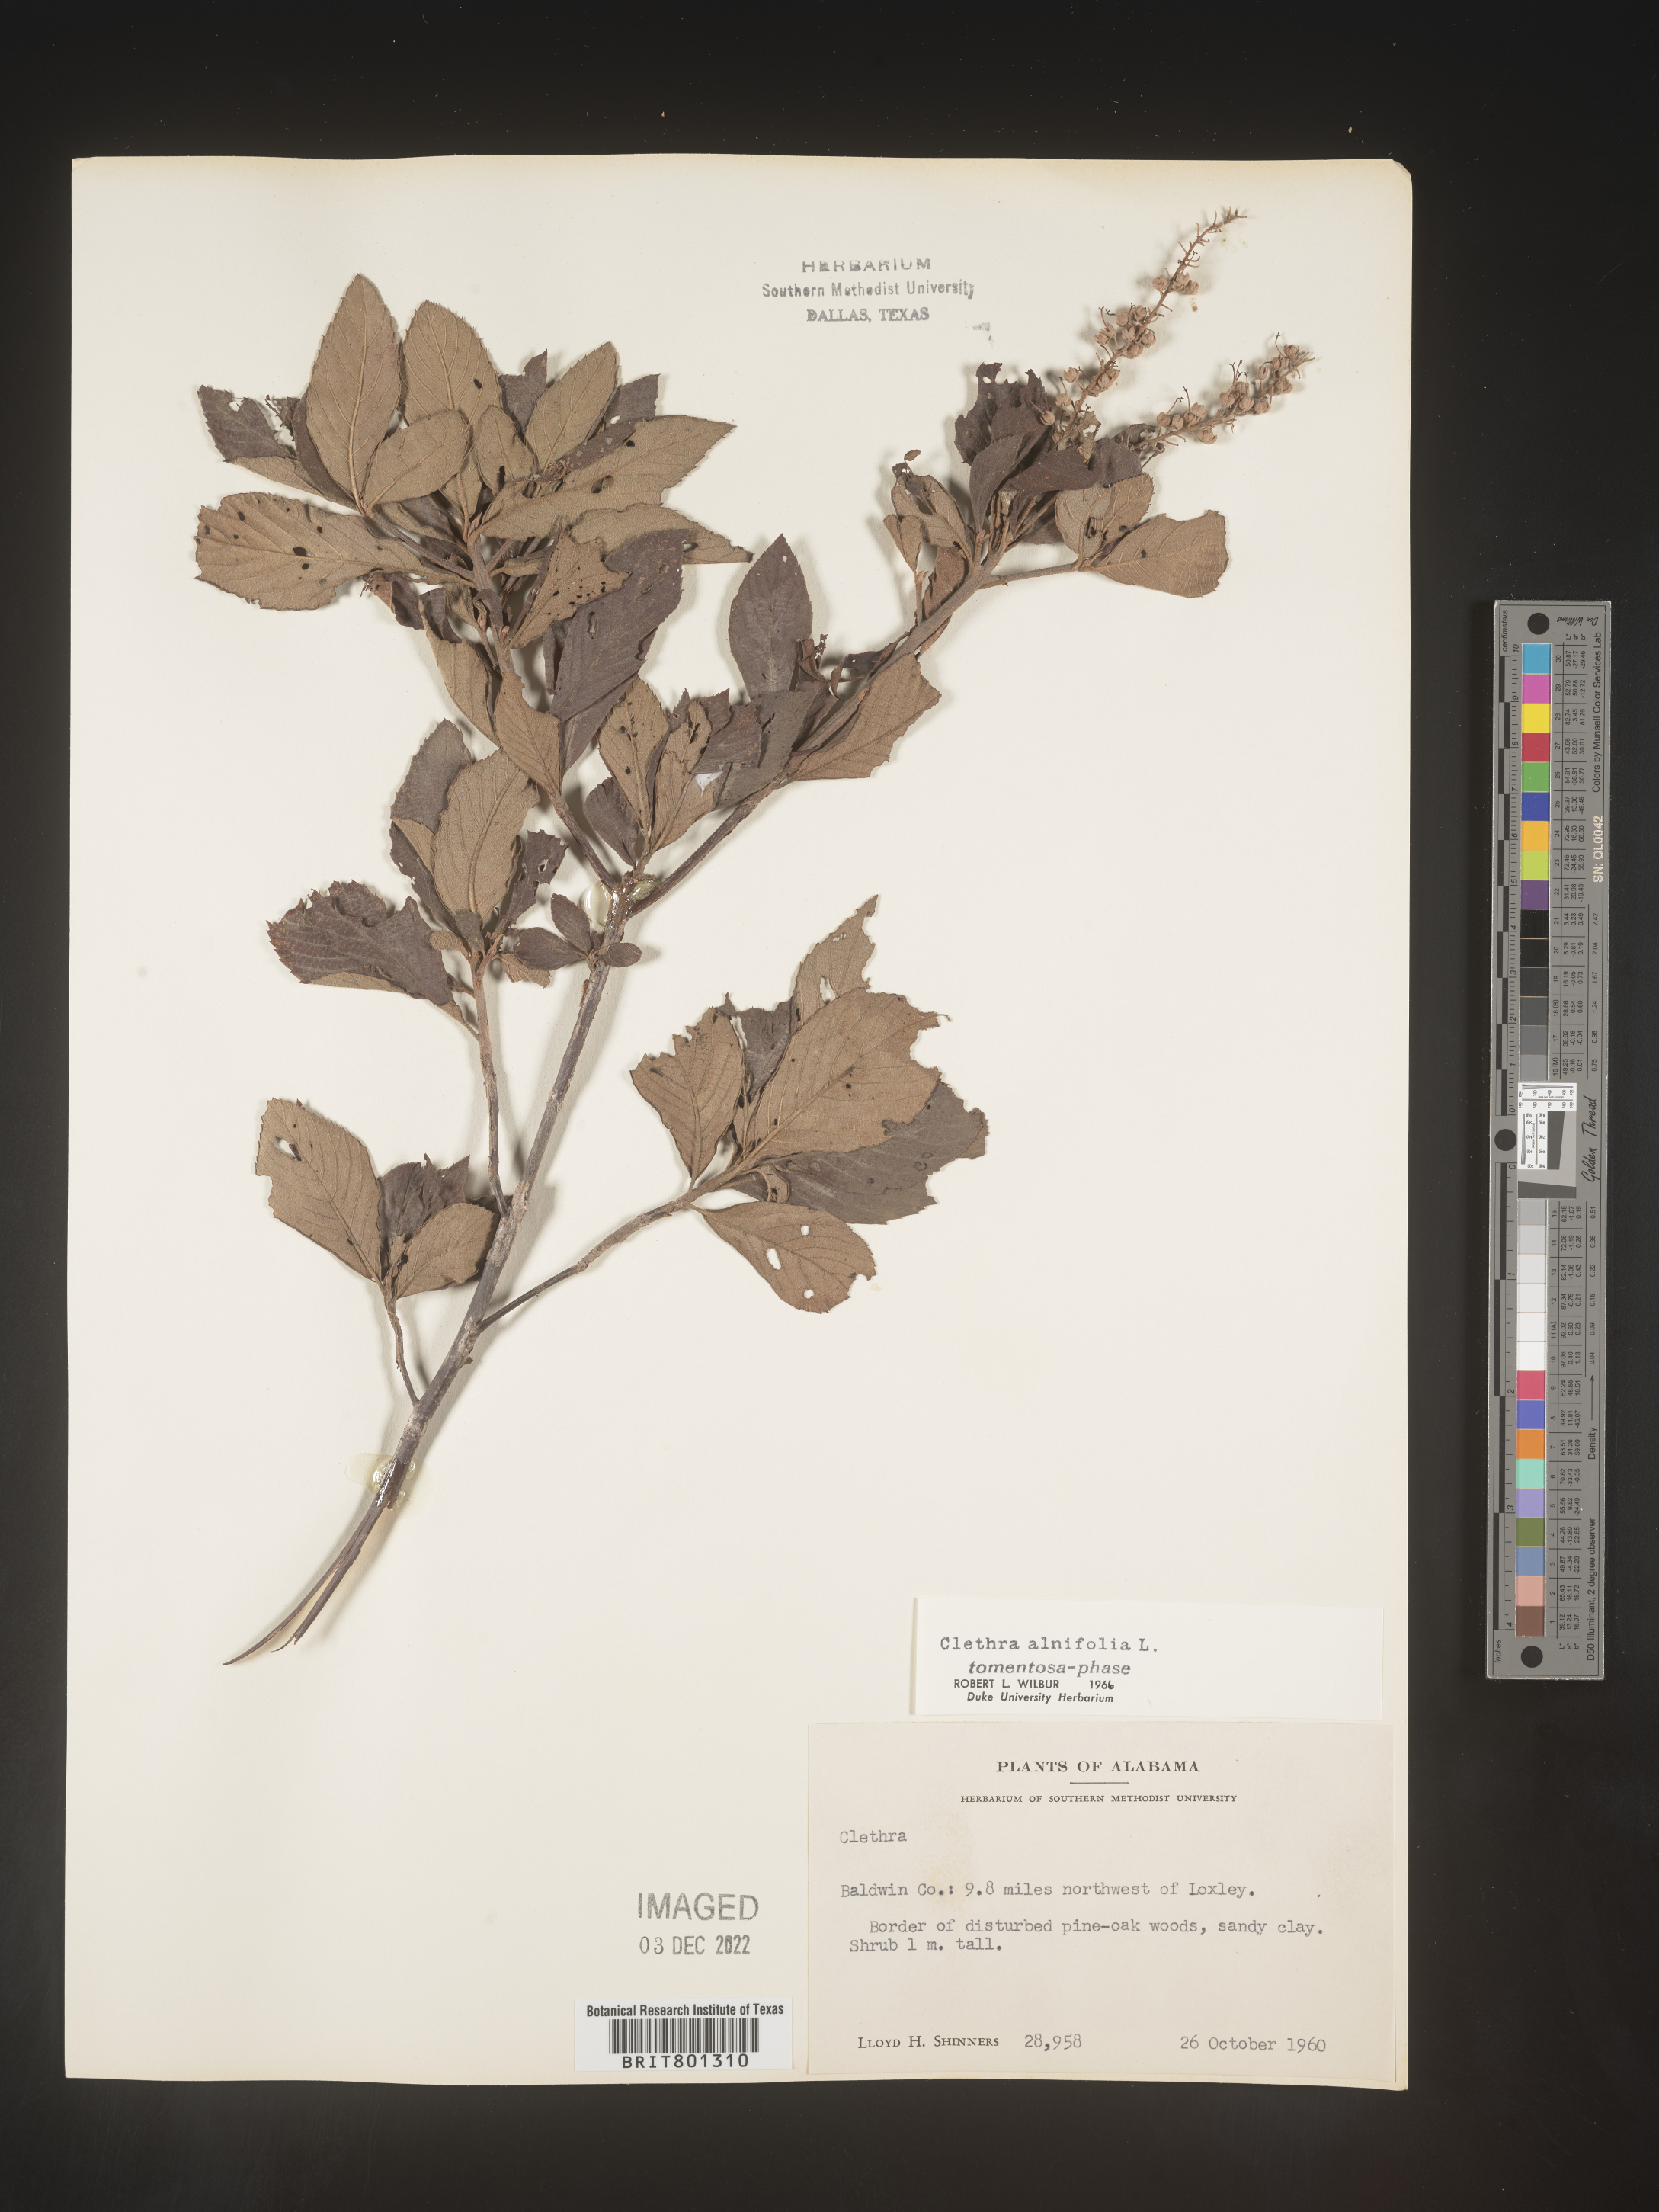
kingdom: Plantae
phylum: Tracheophyta
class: Magnoliopsida
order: Ericales
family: Clethraceae
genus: Clethra
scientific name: Clethra alnifolia
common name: Sweet pepperbush
